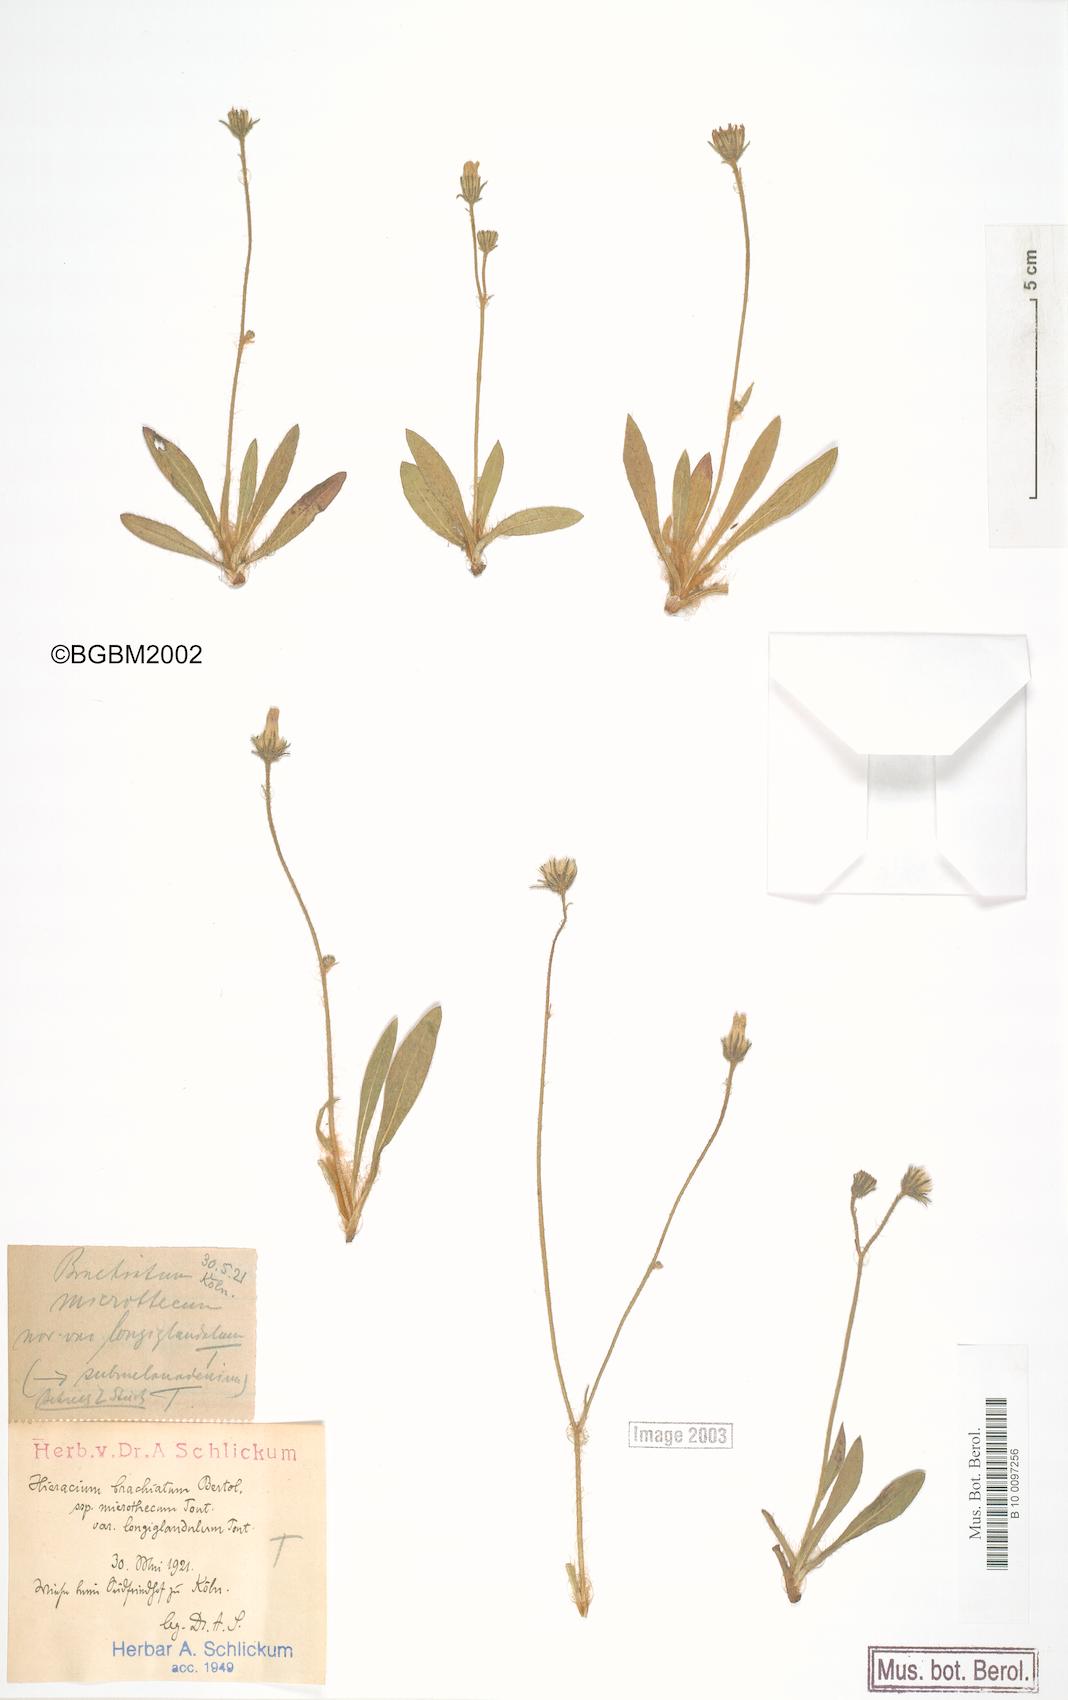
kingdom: Plantae
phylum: Tracheophyta
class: Magnoliopsida
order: Asterales
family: Asteraceae
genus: Pilosella
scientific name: Pilosella acutifolia
